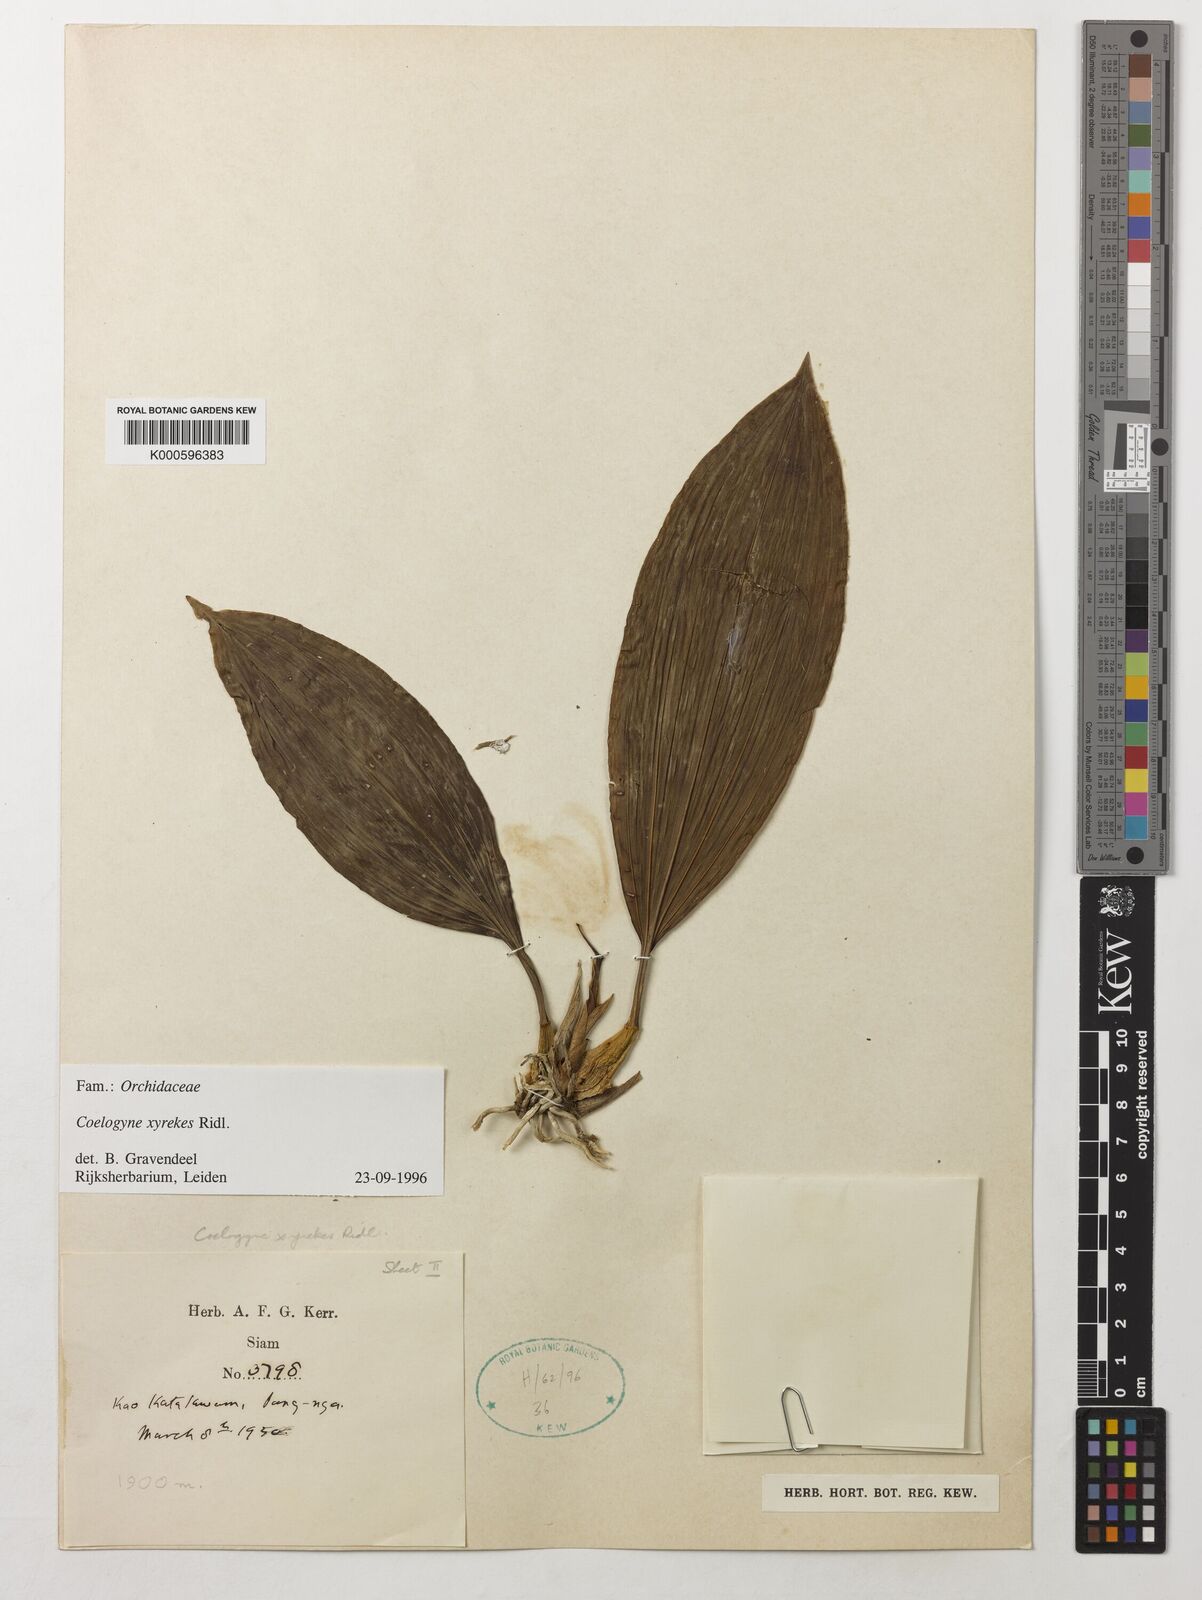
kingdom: Plantae
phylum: Tracheophyta
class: Liliopsida
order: Asparagales
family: Orchidaceae
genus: Coelogyne
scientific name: Coelogyne xyrekes
